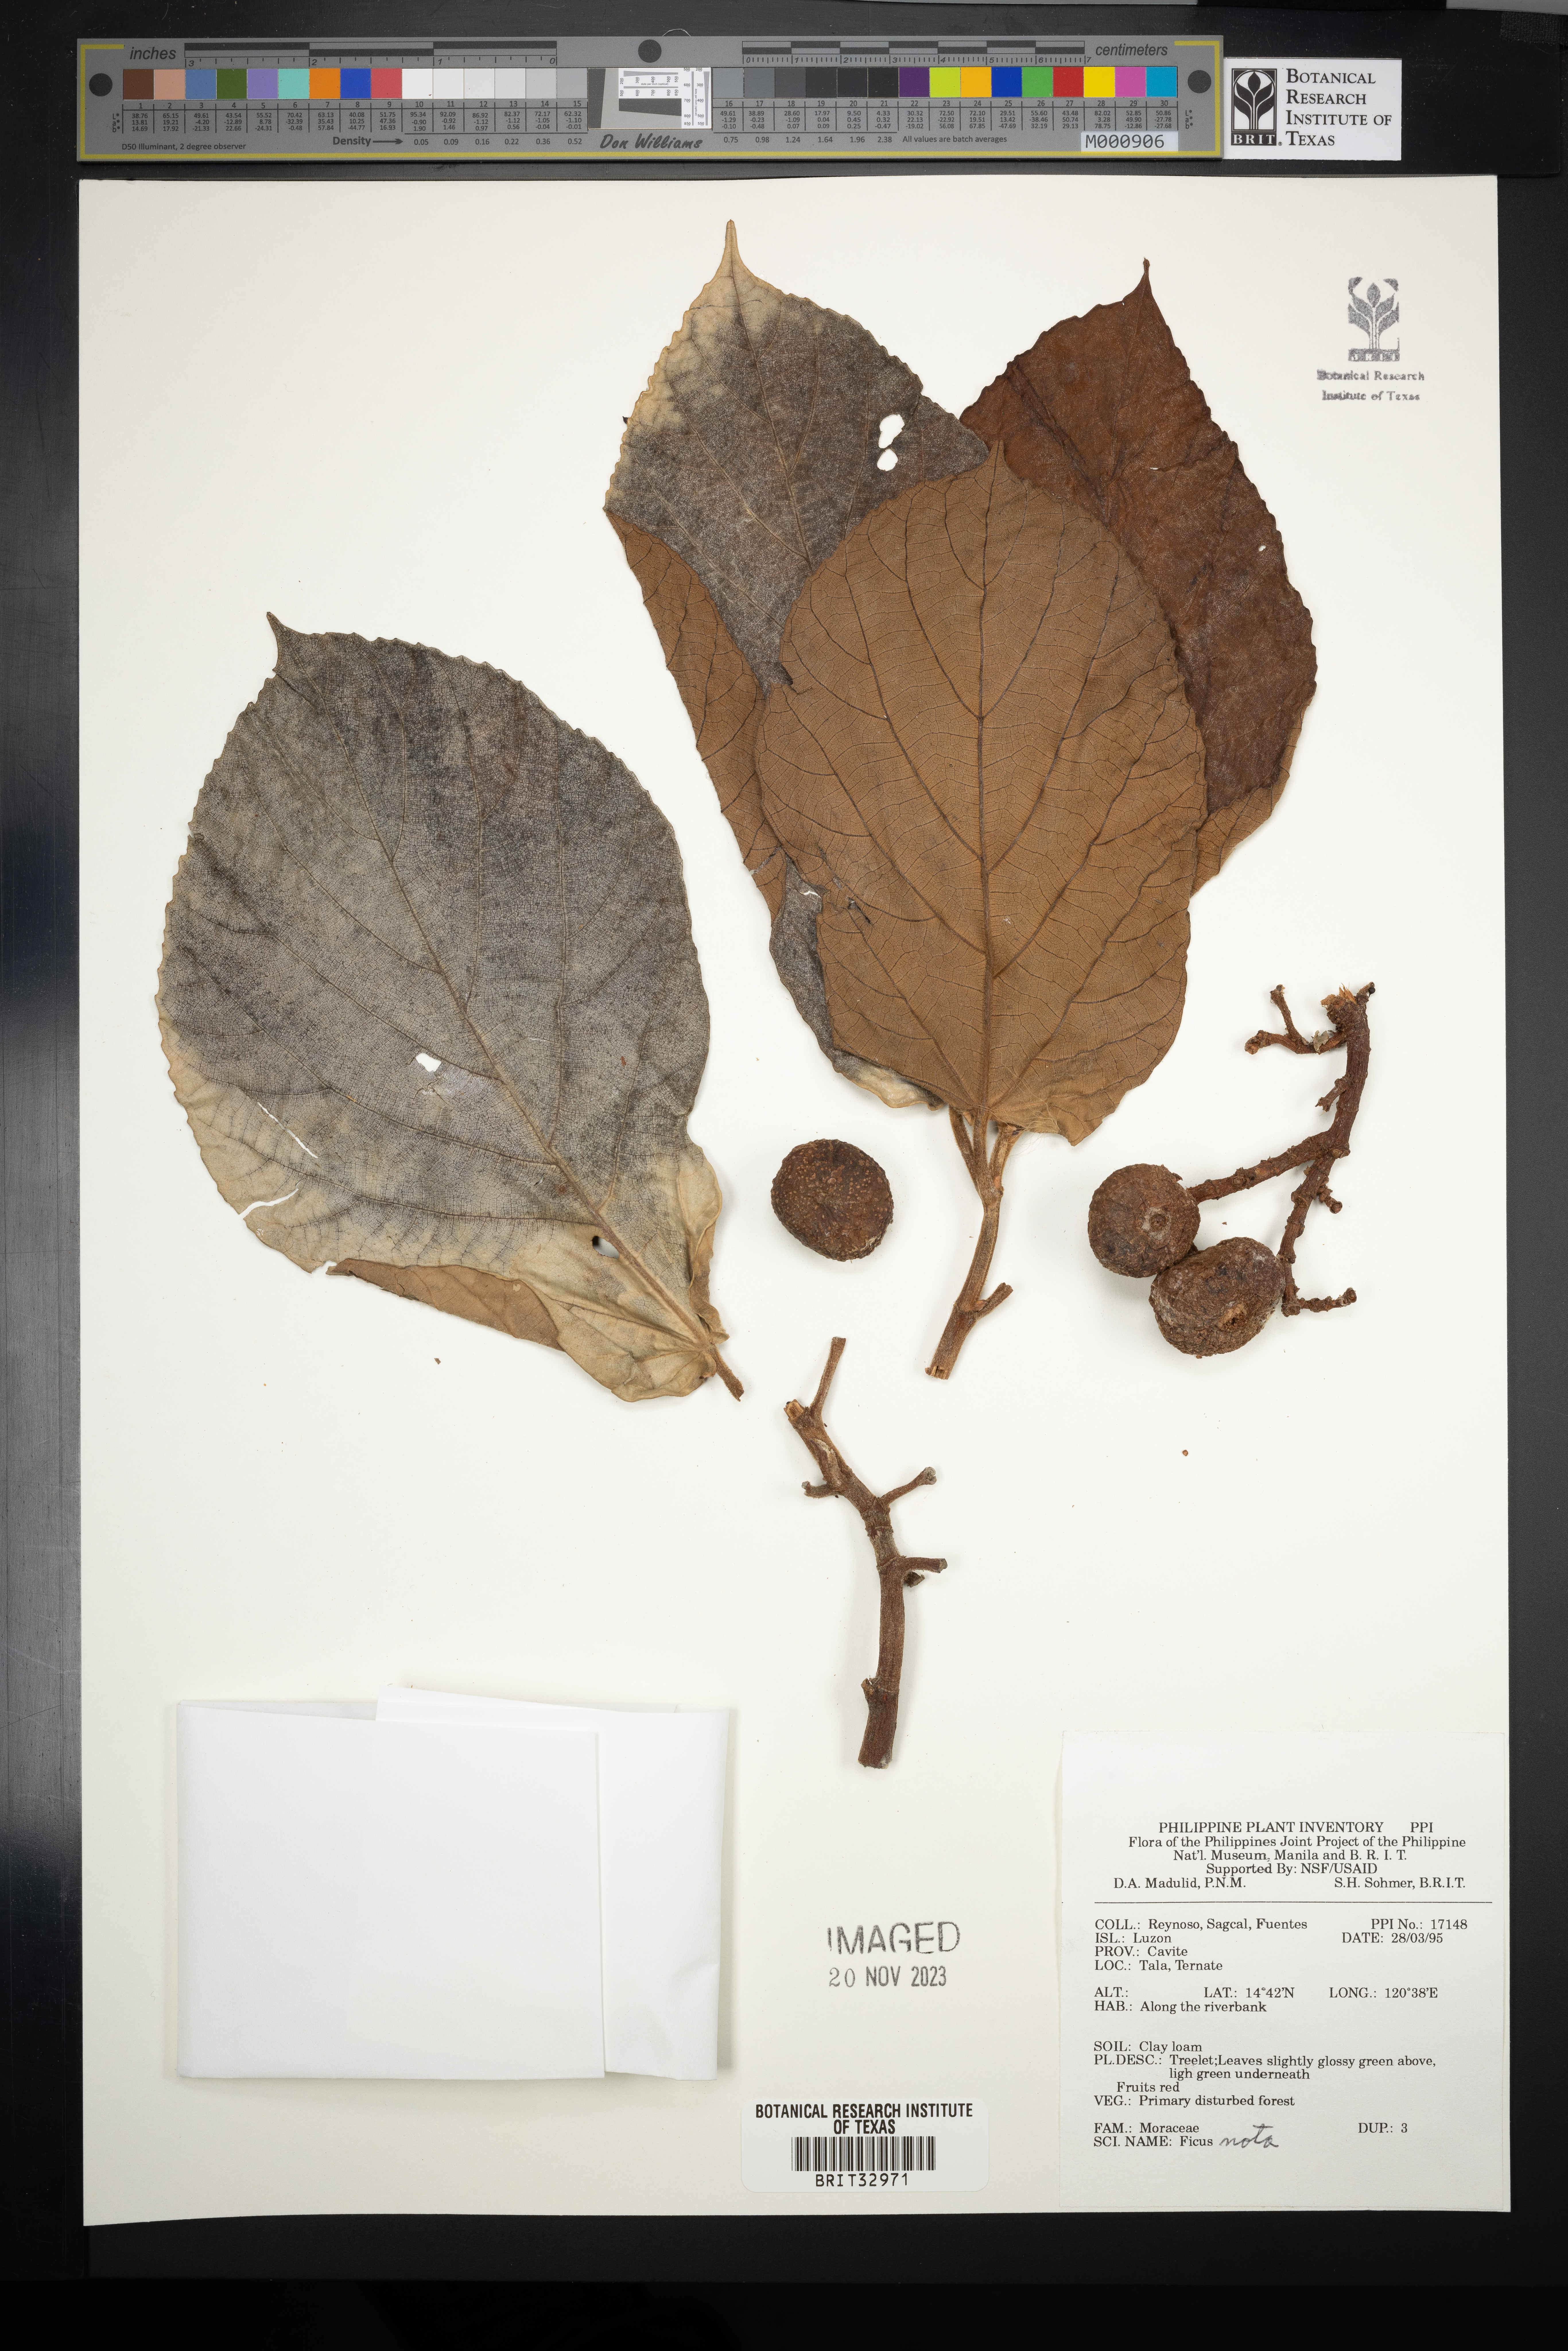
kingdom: Plantae
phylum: Tracheophyta
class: Magnoliopsida
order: Rosales
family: Moraceae
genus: Ficus
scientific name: Ficus nota
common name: Tibig
